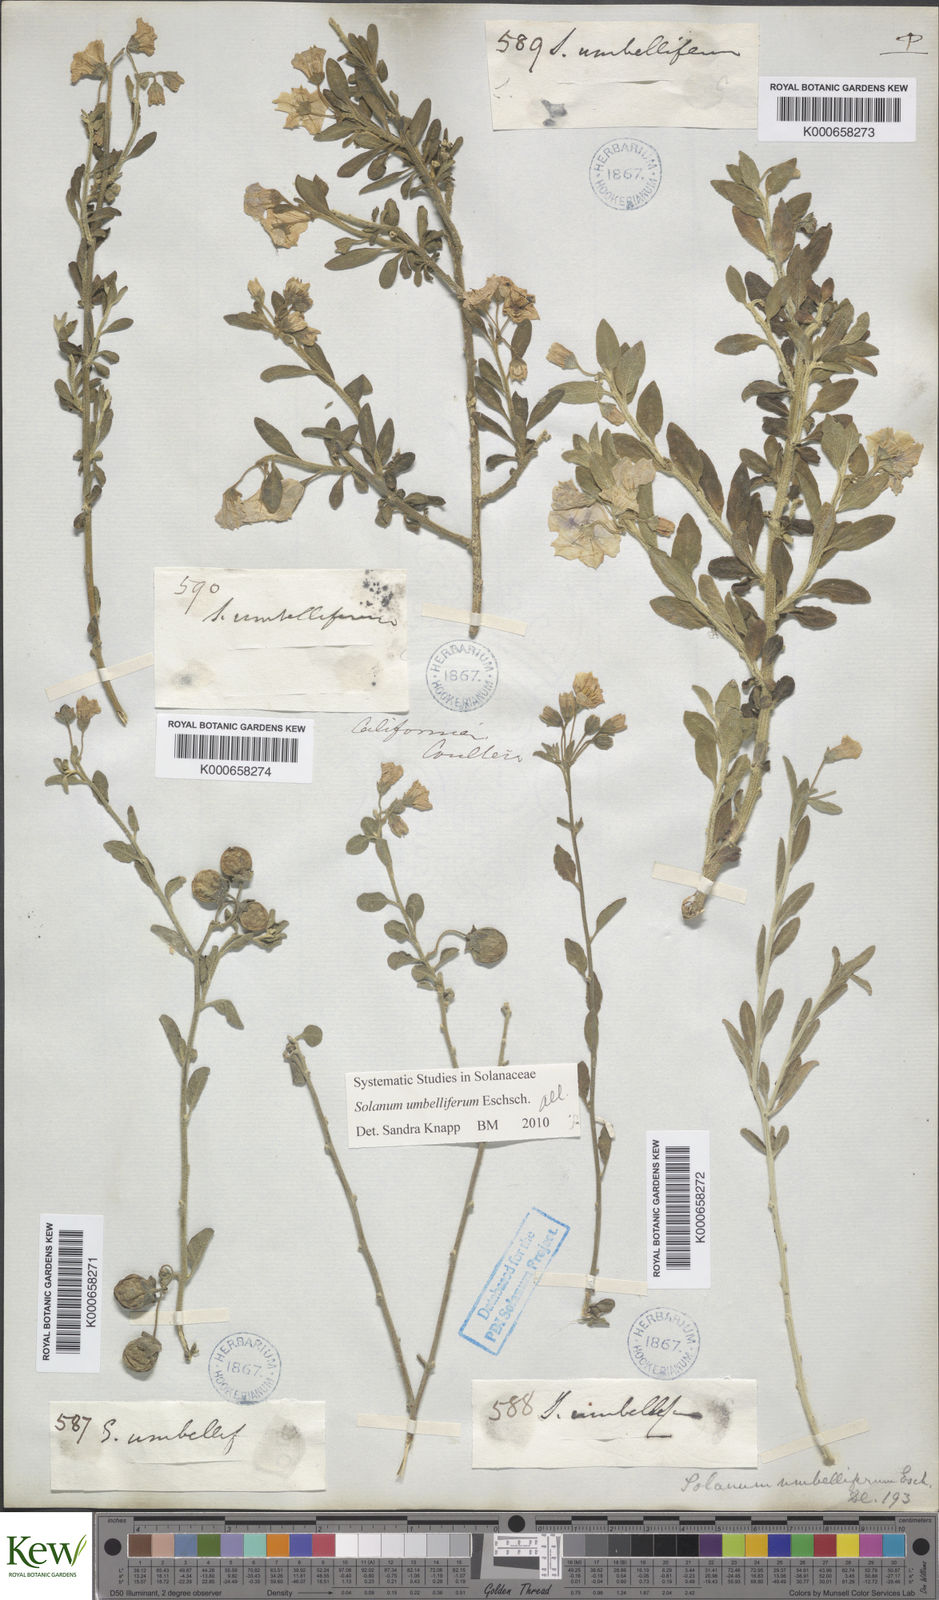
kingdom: Plantae
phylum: Tracheophyta
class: Magnoliopsida
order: Solanales
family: Solanaceae
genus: Solanum
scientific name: Solanum umbelliferum
